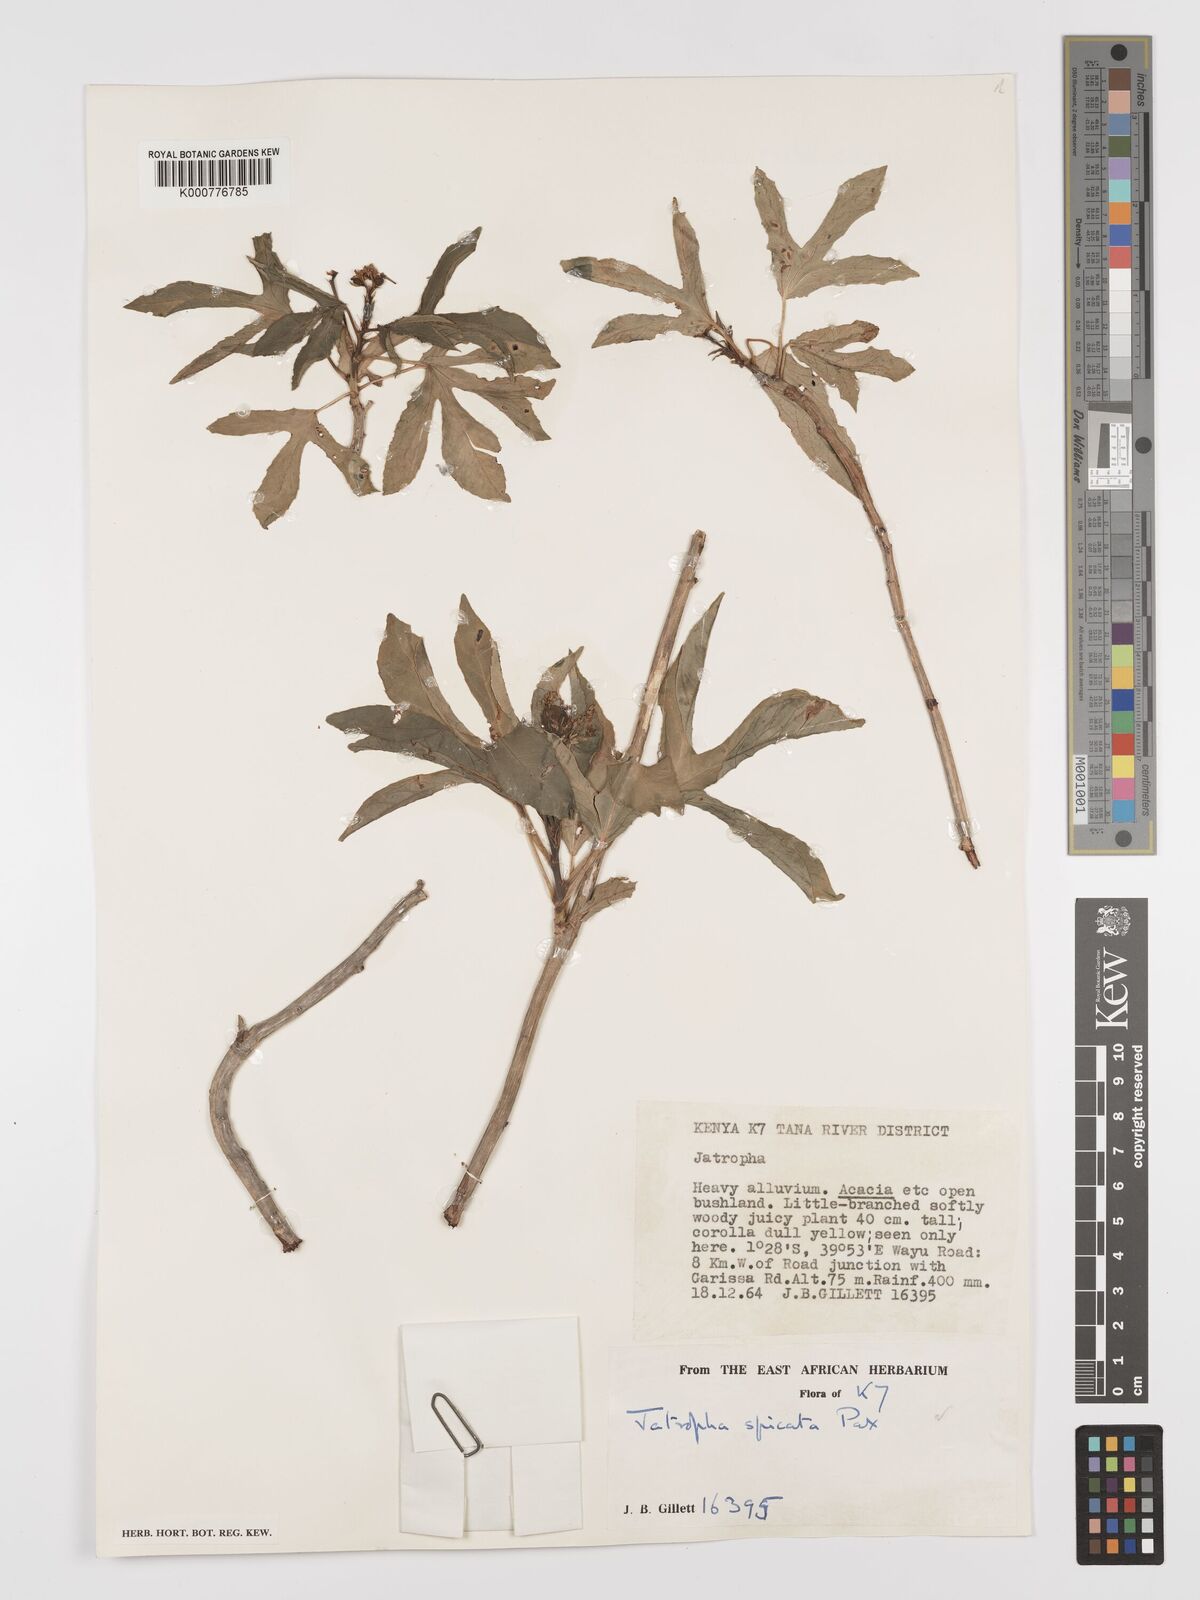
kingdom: Plantae
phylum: Tracheophyta
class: Magnoliopsida
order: Malpighiales
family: Euphorbiaceae
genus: Jatropha
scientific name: Jatropha spicata
